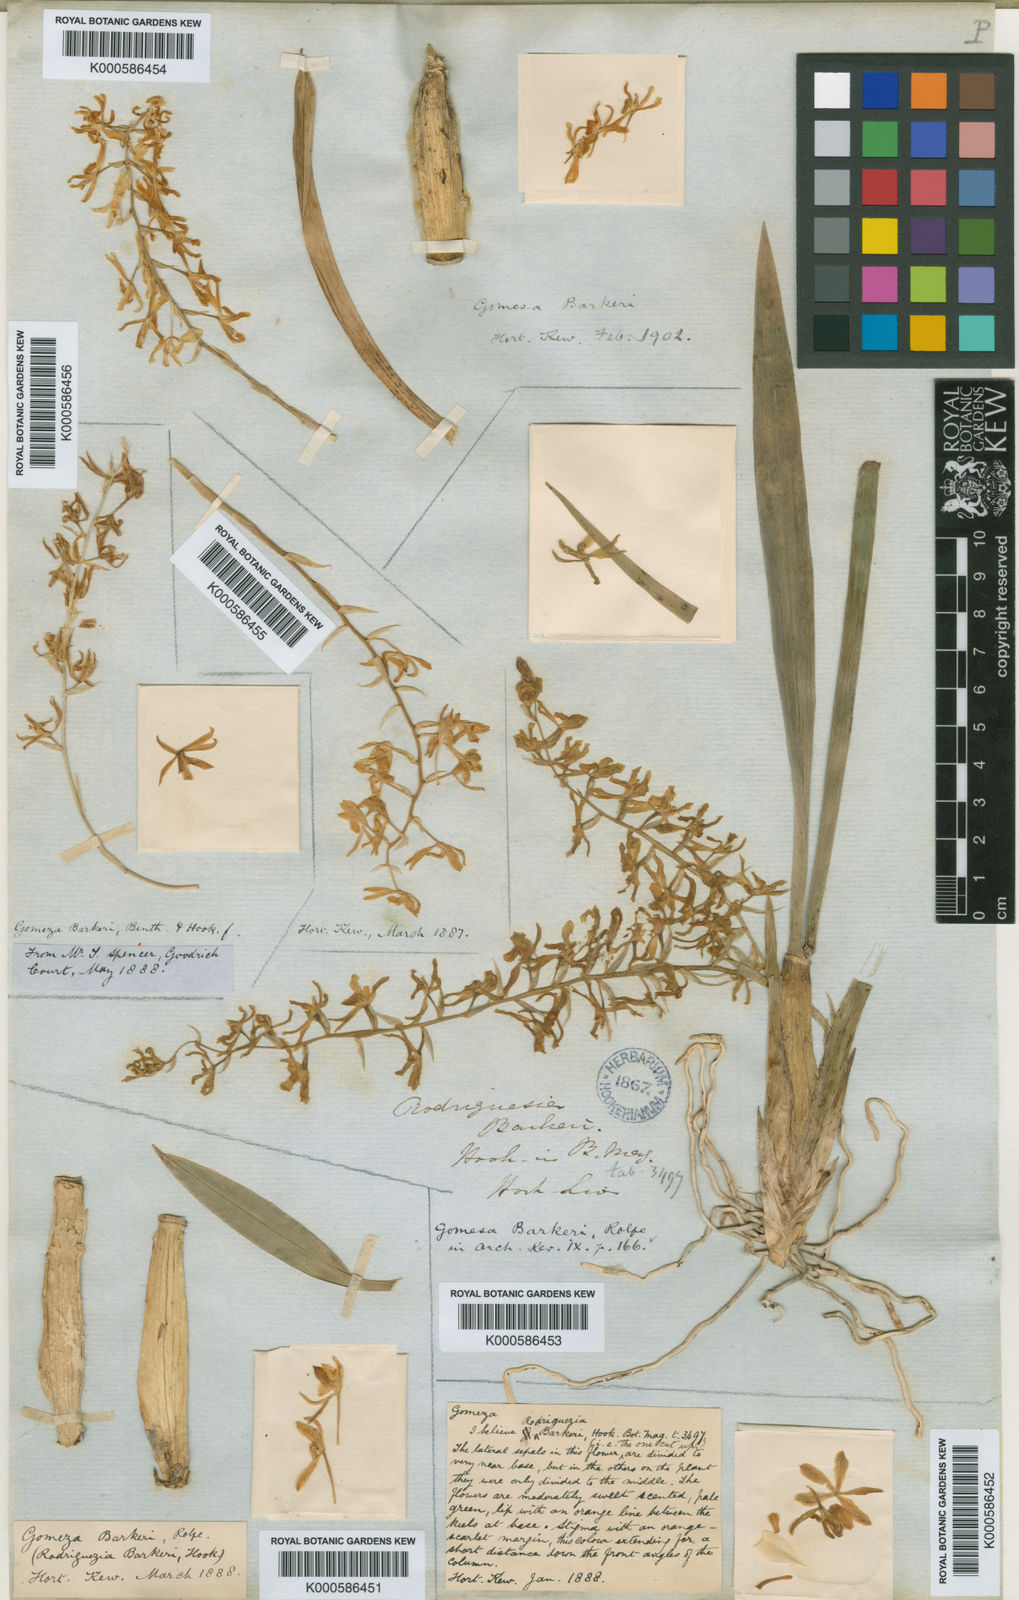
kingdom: Plantae
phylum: Tracheophyta
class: Liliopsida
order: Asparagales
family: Orchidaceae
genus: Gomesa
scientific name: Gomesa recurva
